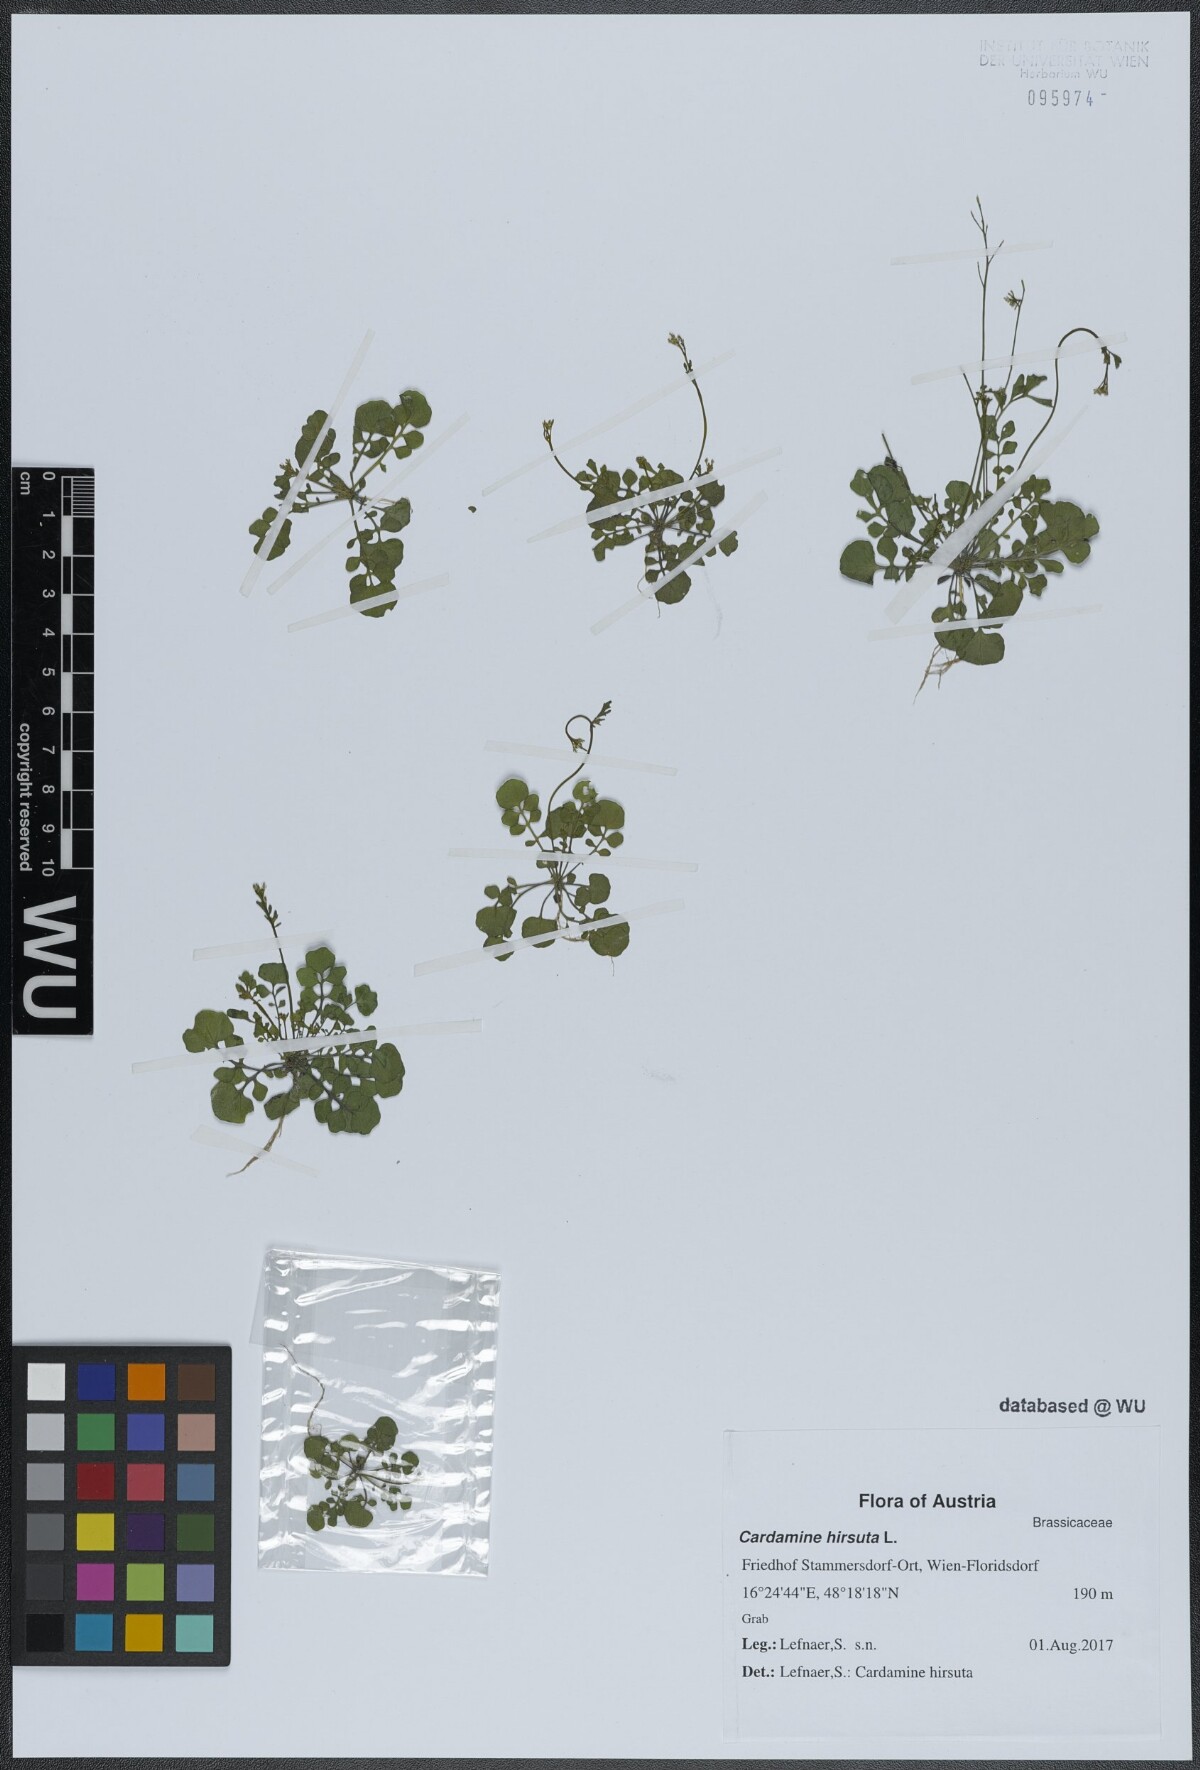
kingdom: Plantae
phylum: Tracheophyta
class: Magnoliopsida
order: Brassicales
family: Brassicaceae
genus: Cardamine
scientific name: Cardamine hirsuta
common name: Hairy bittercress
